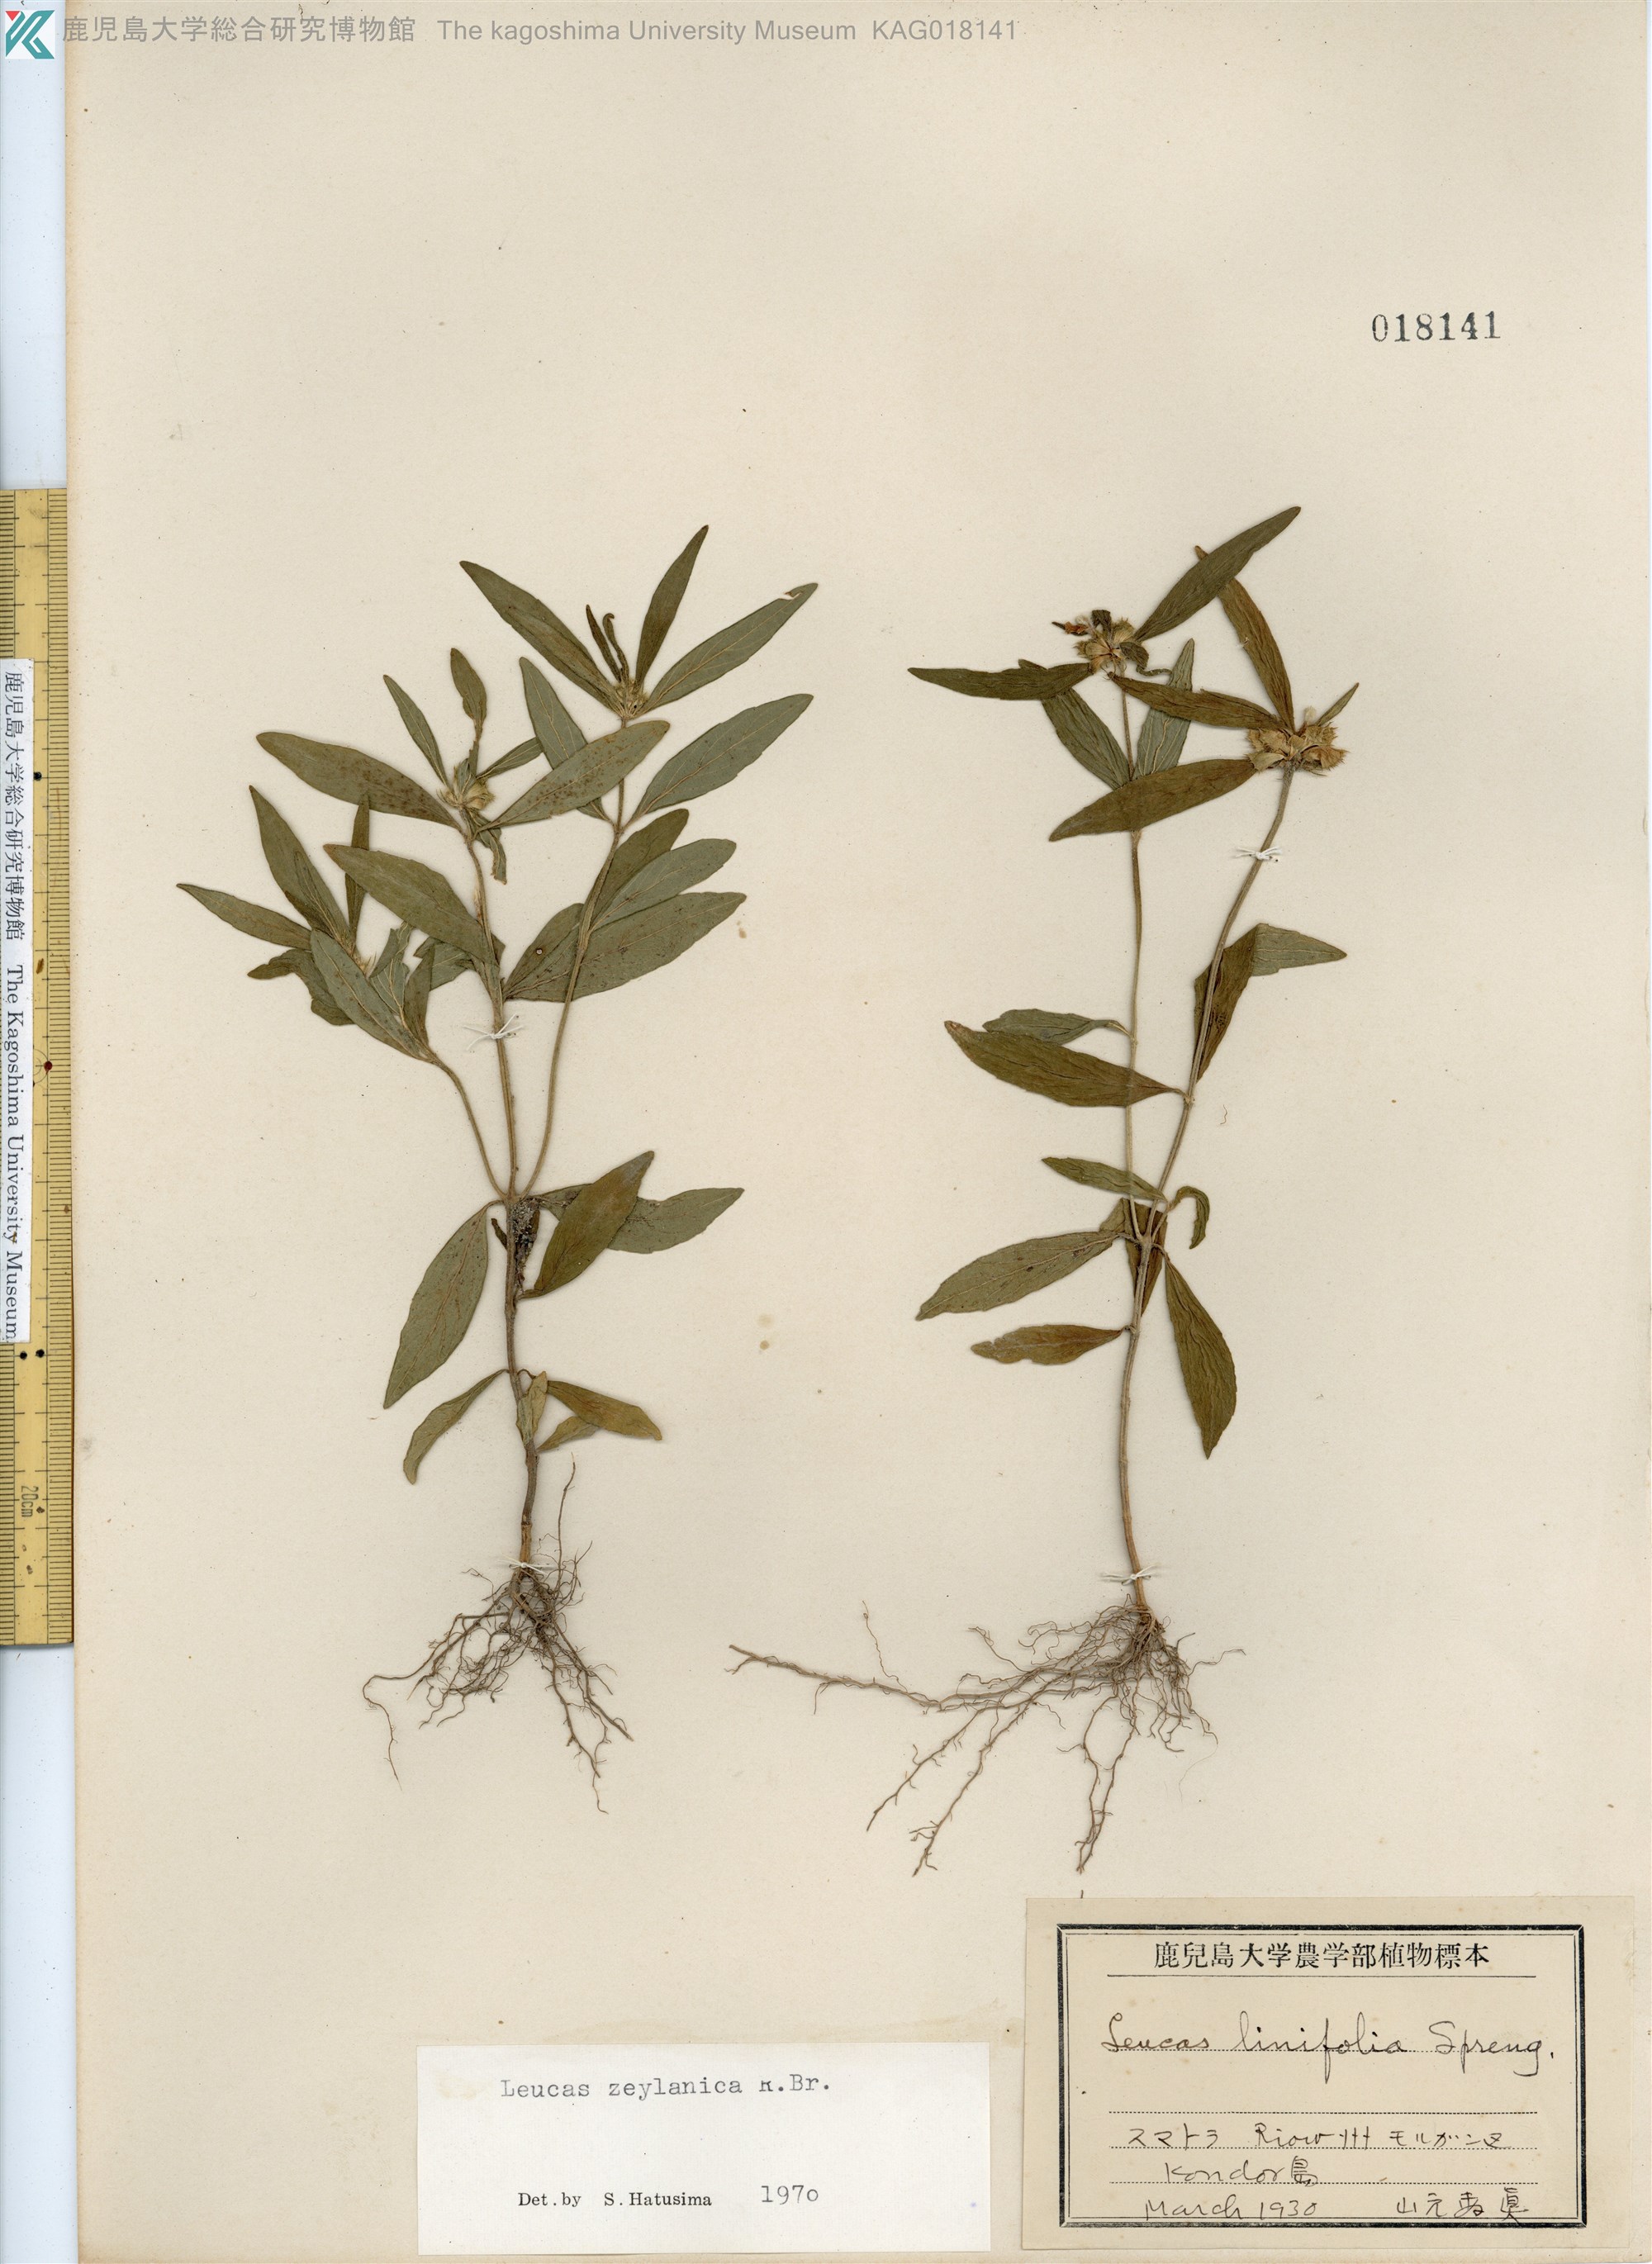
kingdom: Plantae
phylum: Tracheophyta
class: Magnoliopsida
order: Lamiales
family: Lamiaceae
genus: Leucas
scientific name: Leucas zeylanica
